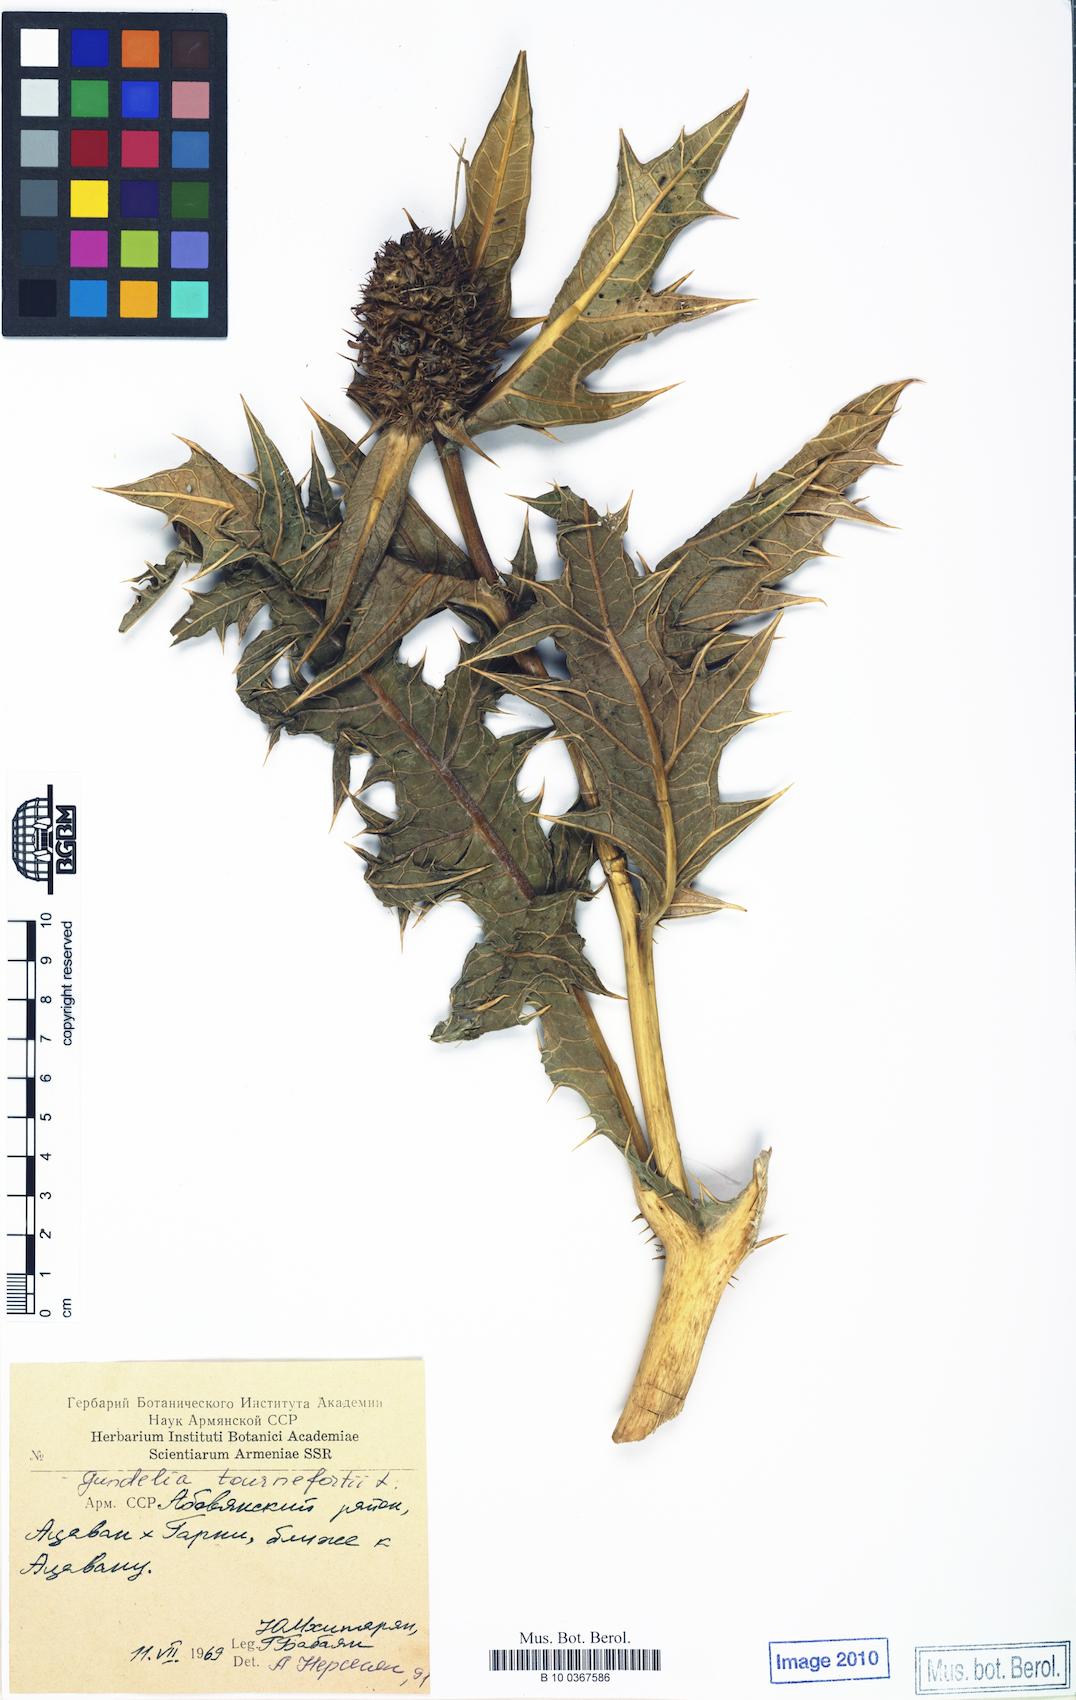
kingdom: Plantae
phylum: Tracheophyta
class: Magnoliopsida
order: Asterales
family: Asteraceae
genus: Gundelia
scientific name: Gundelia tournefortii
